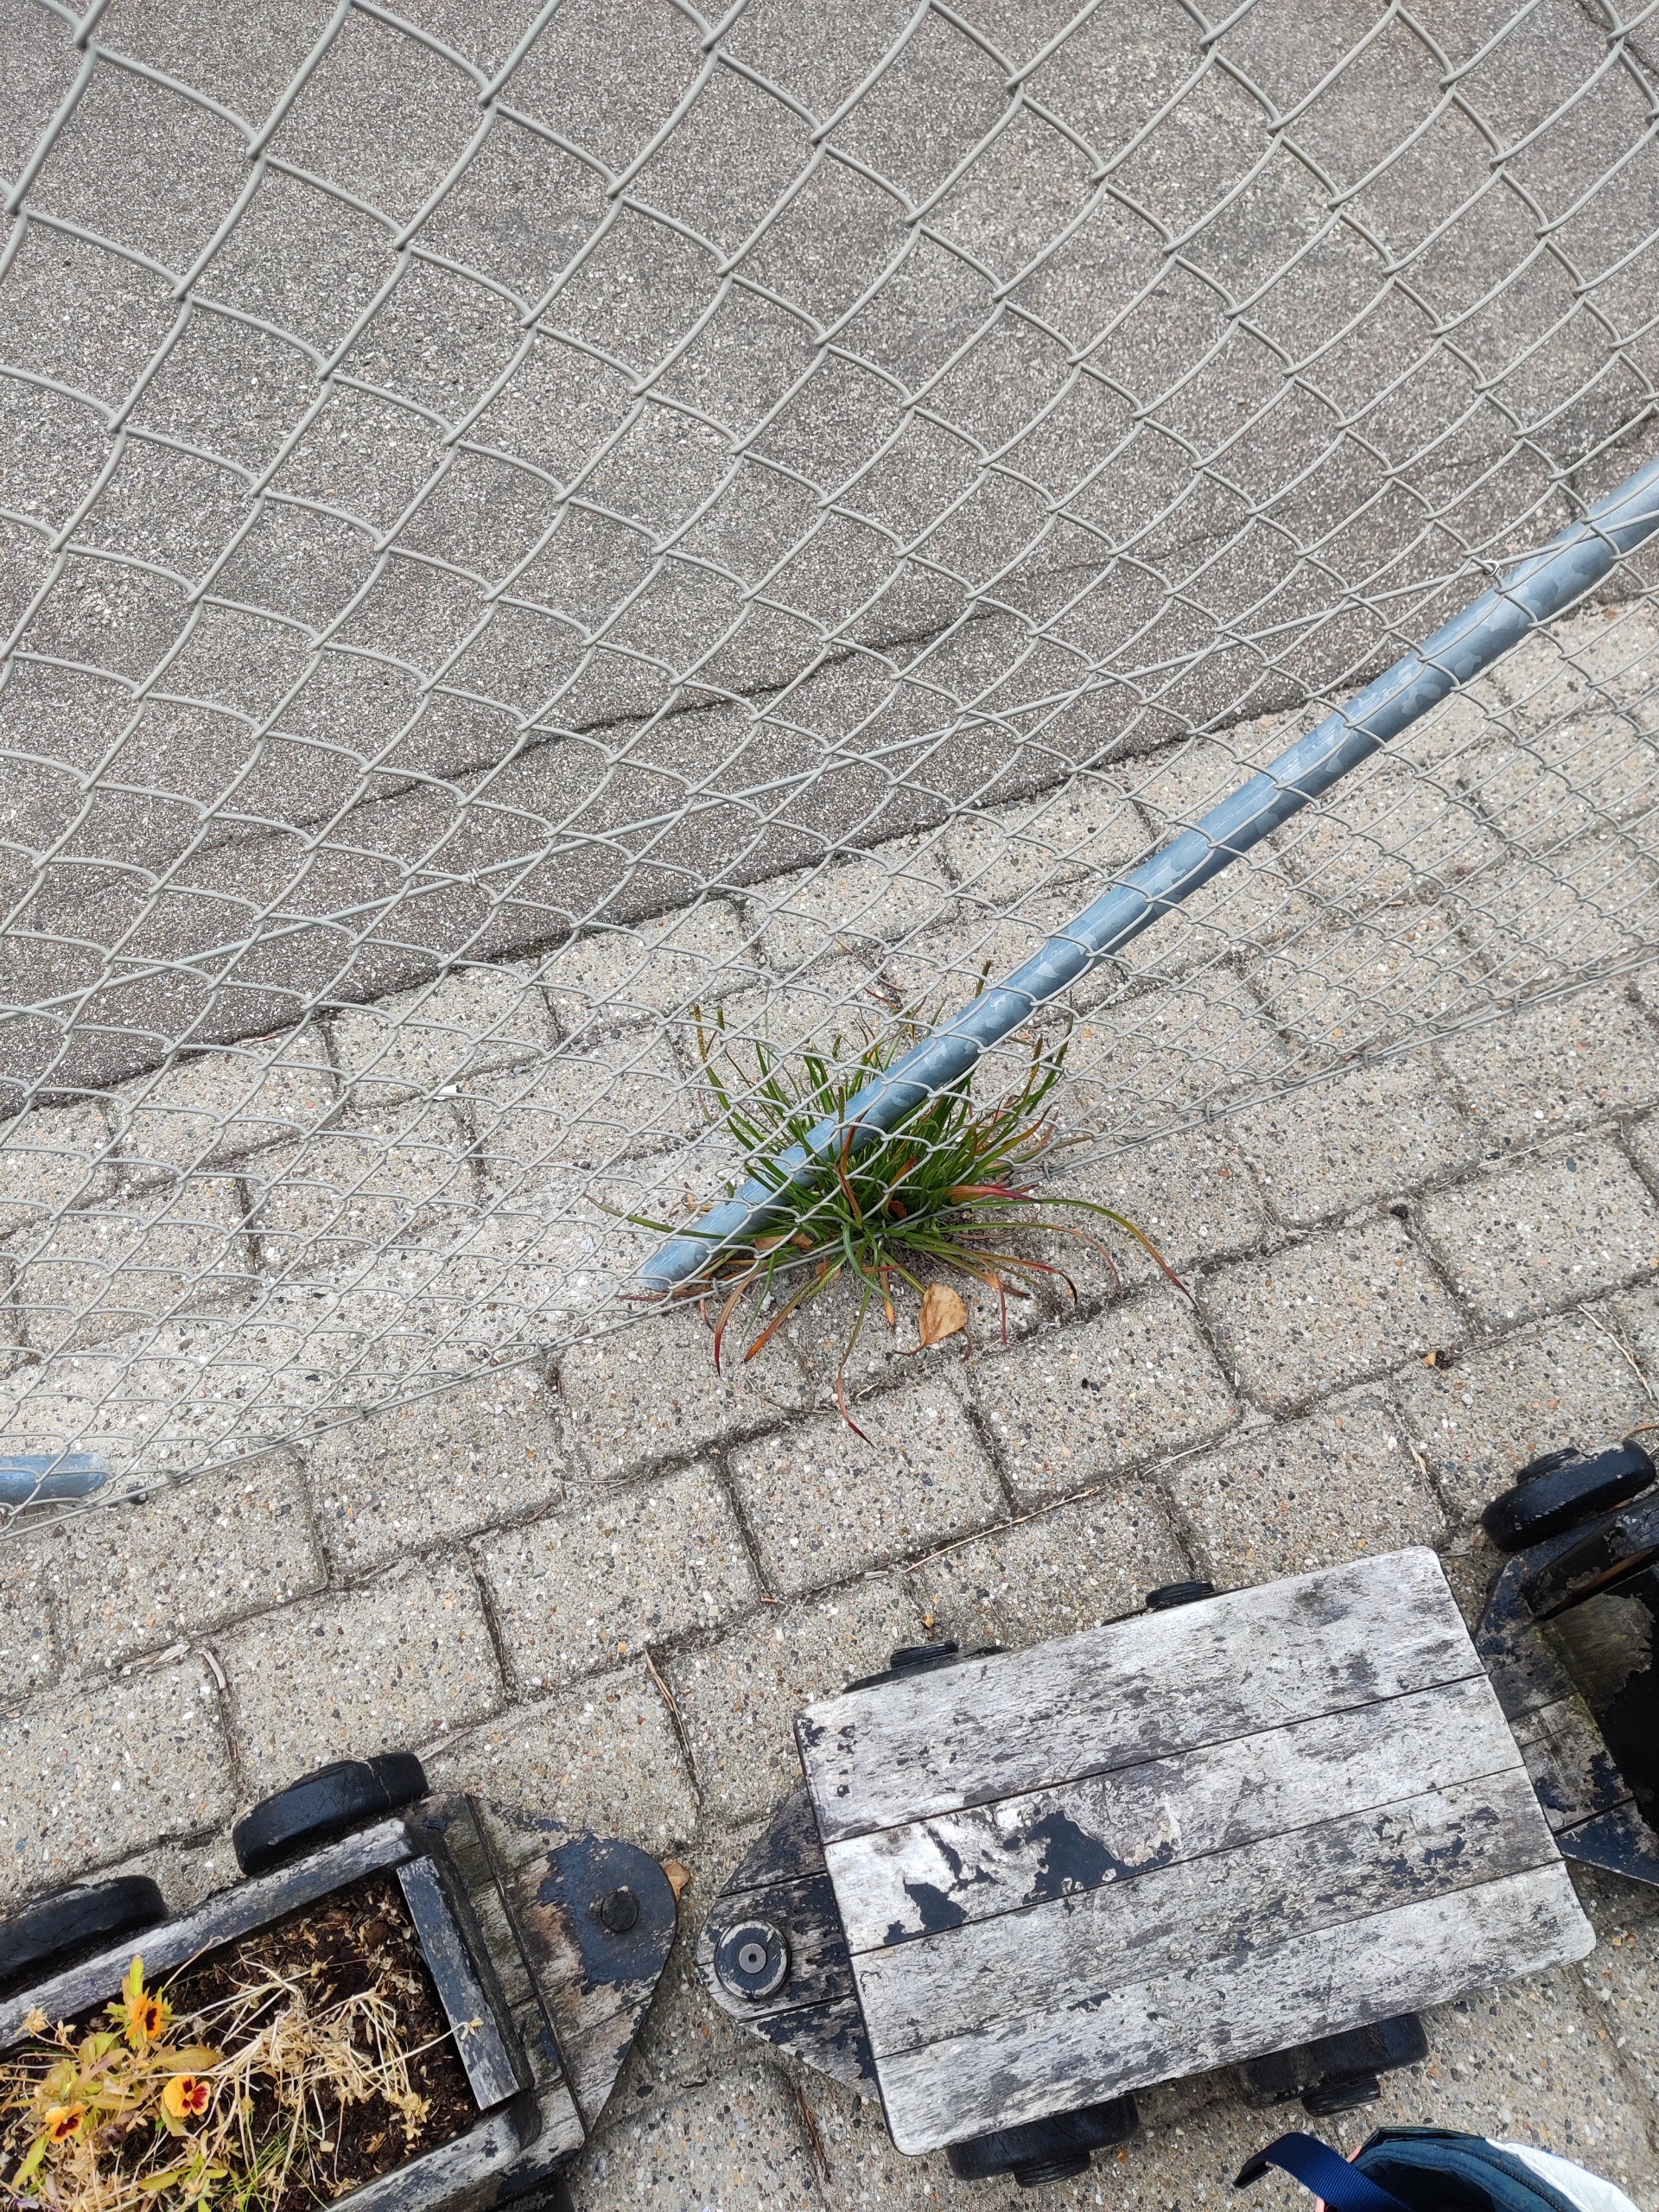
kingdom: Plantae
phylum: Tracheophyta
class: Magnoliopsida
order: Lamiales
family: Plantaginaceae
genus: Plantago
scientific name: Plantago maritima
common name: Strand-vejbred
